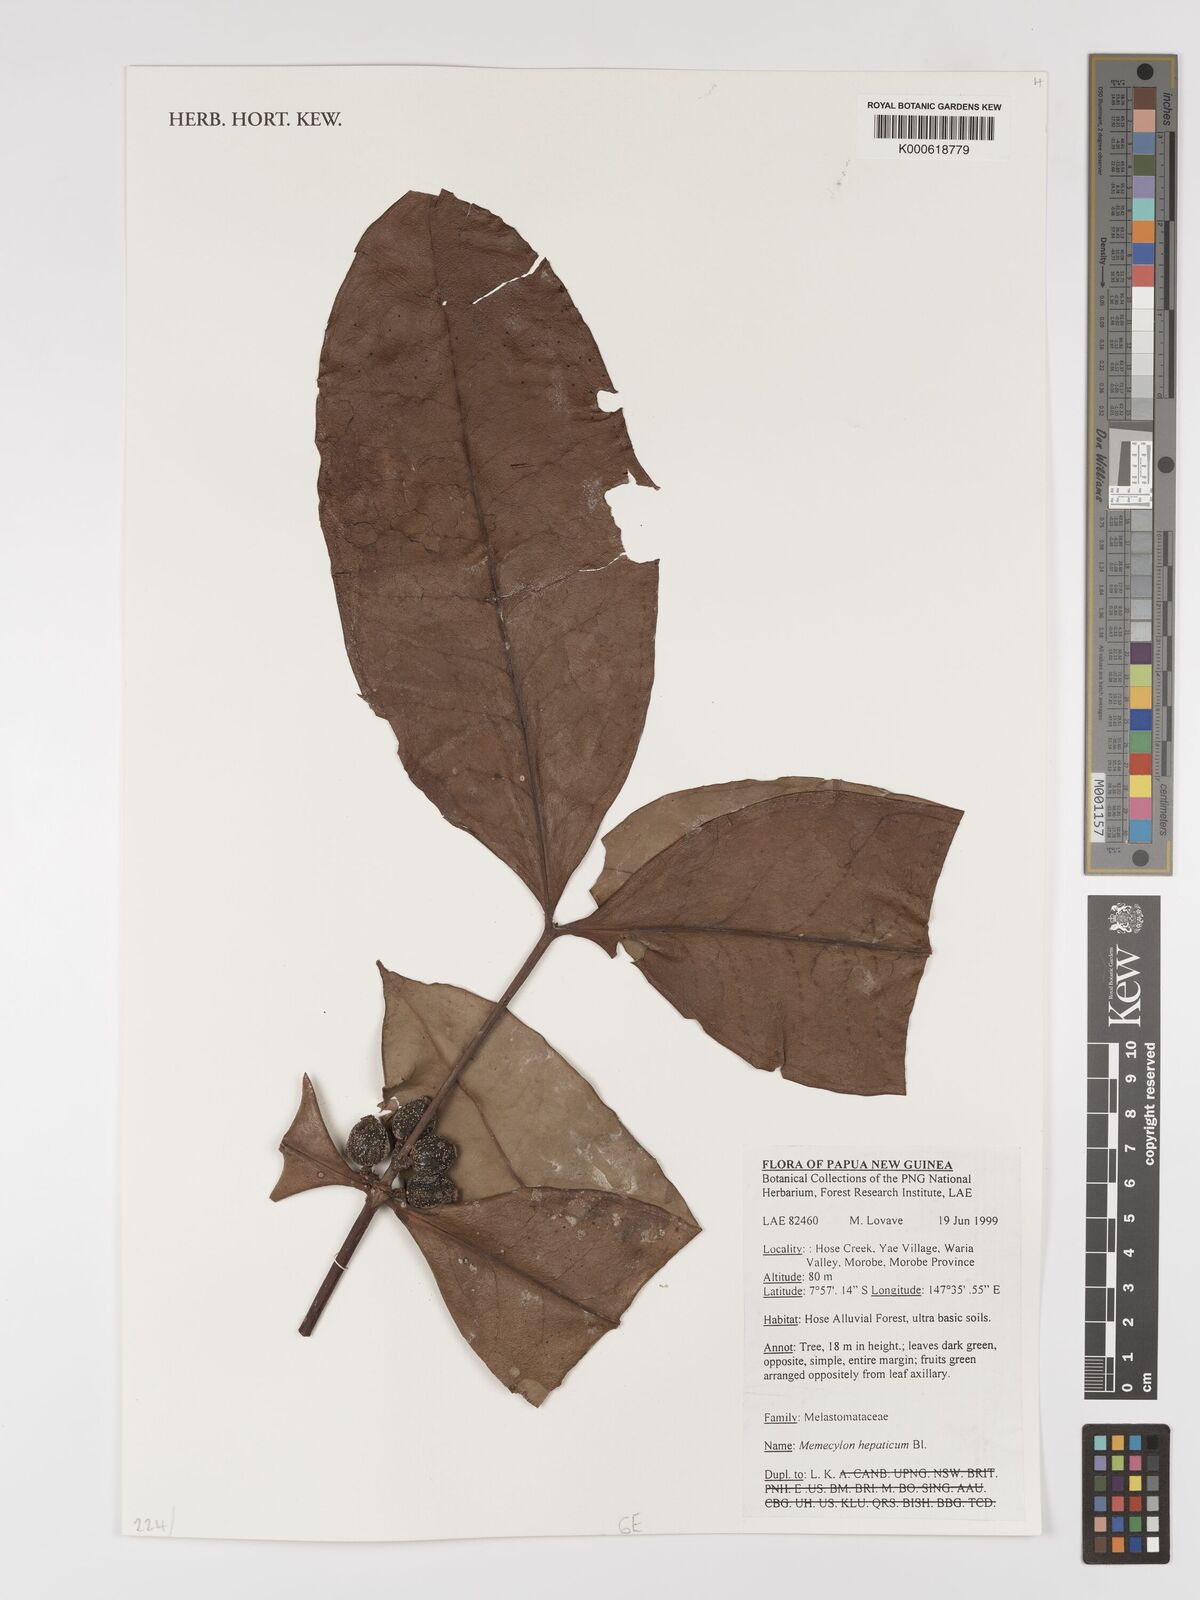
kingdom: Plantae
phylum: Tracheophyta
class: Magnoliopsida
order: Myrtales
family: Melastomataceae
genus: Memecylon
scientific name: Memecylon lilacinum
